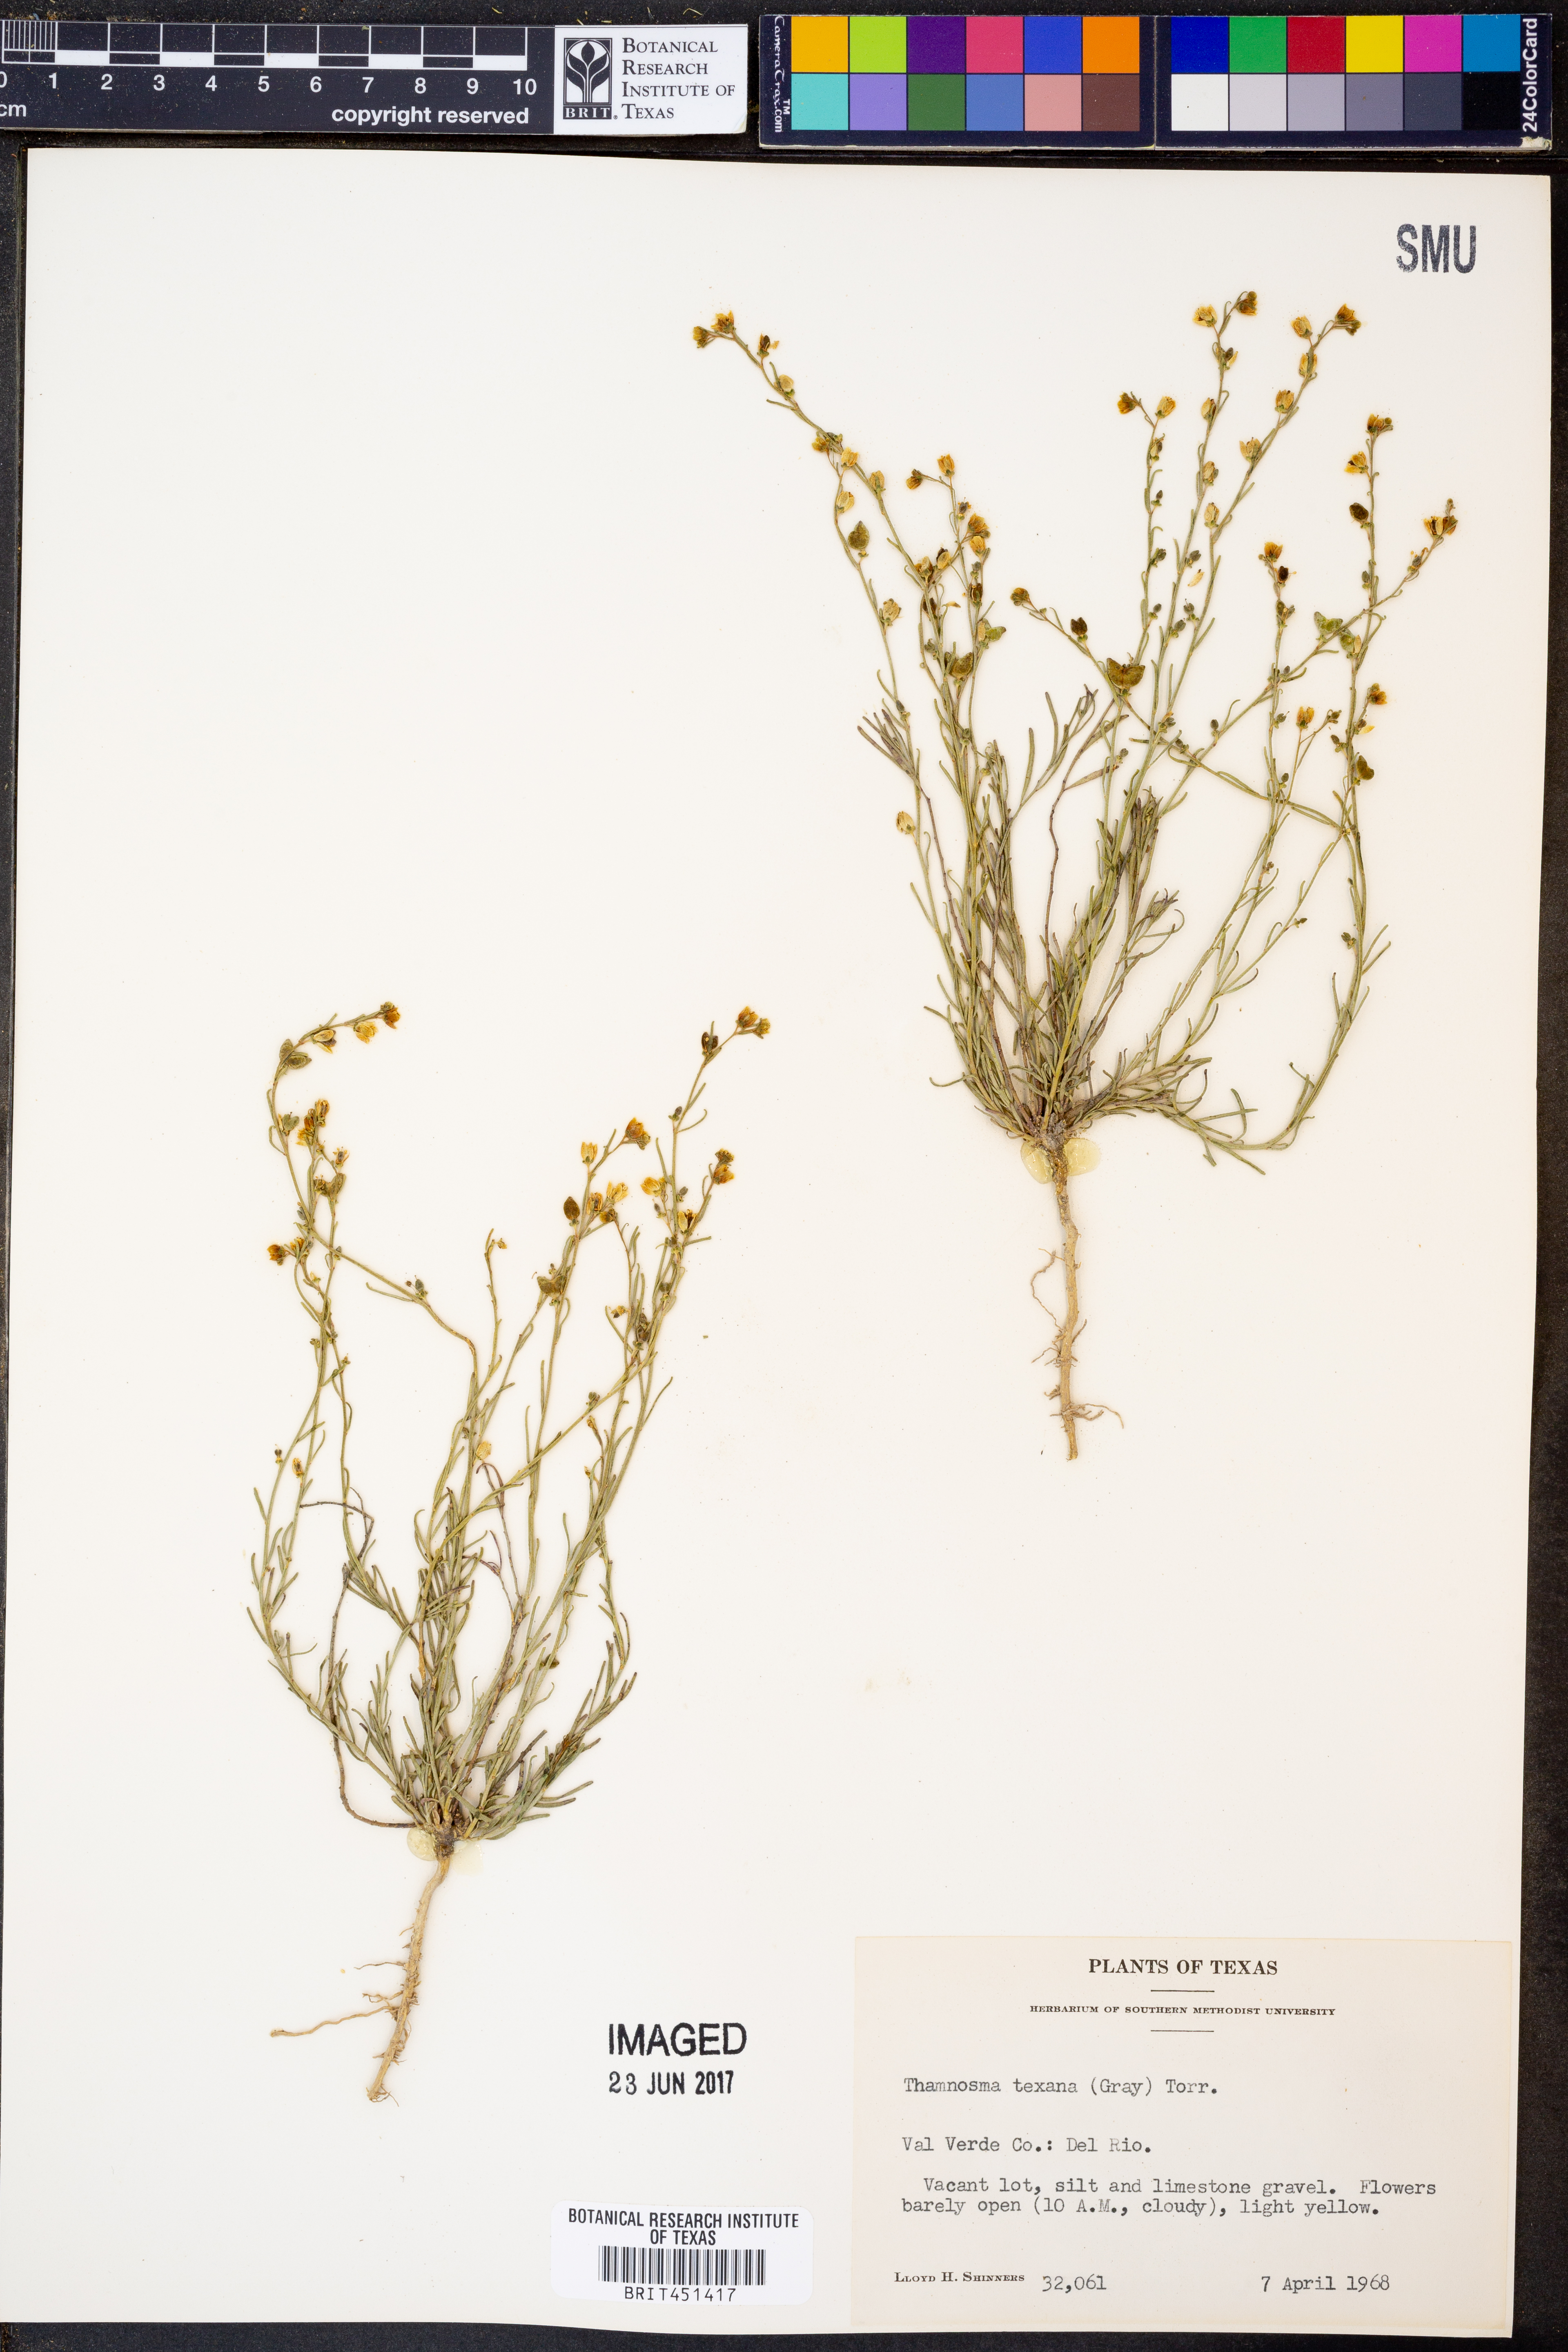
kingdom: Plantae
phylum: Tracheophyta
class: Magnoliopsida
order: Sapindales
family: Rutaceae
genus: Thamnosma
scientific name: Thamnosma texana
